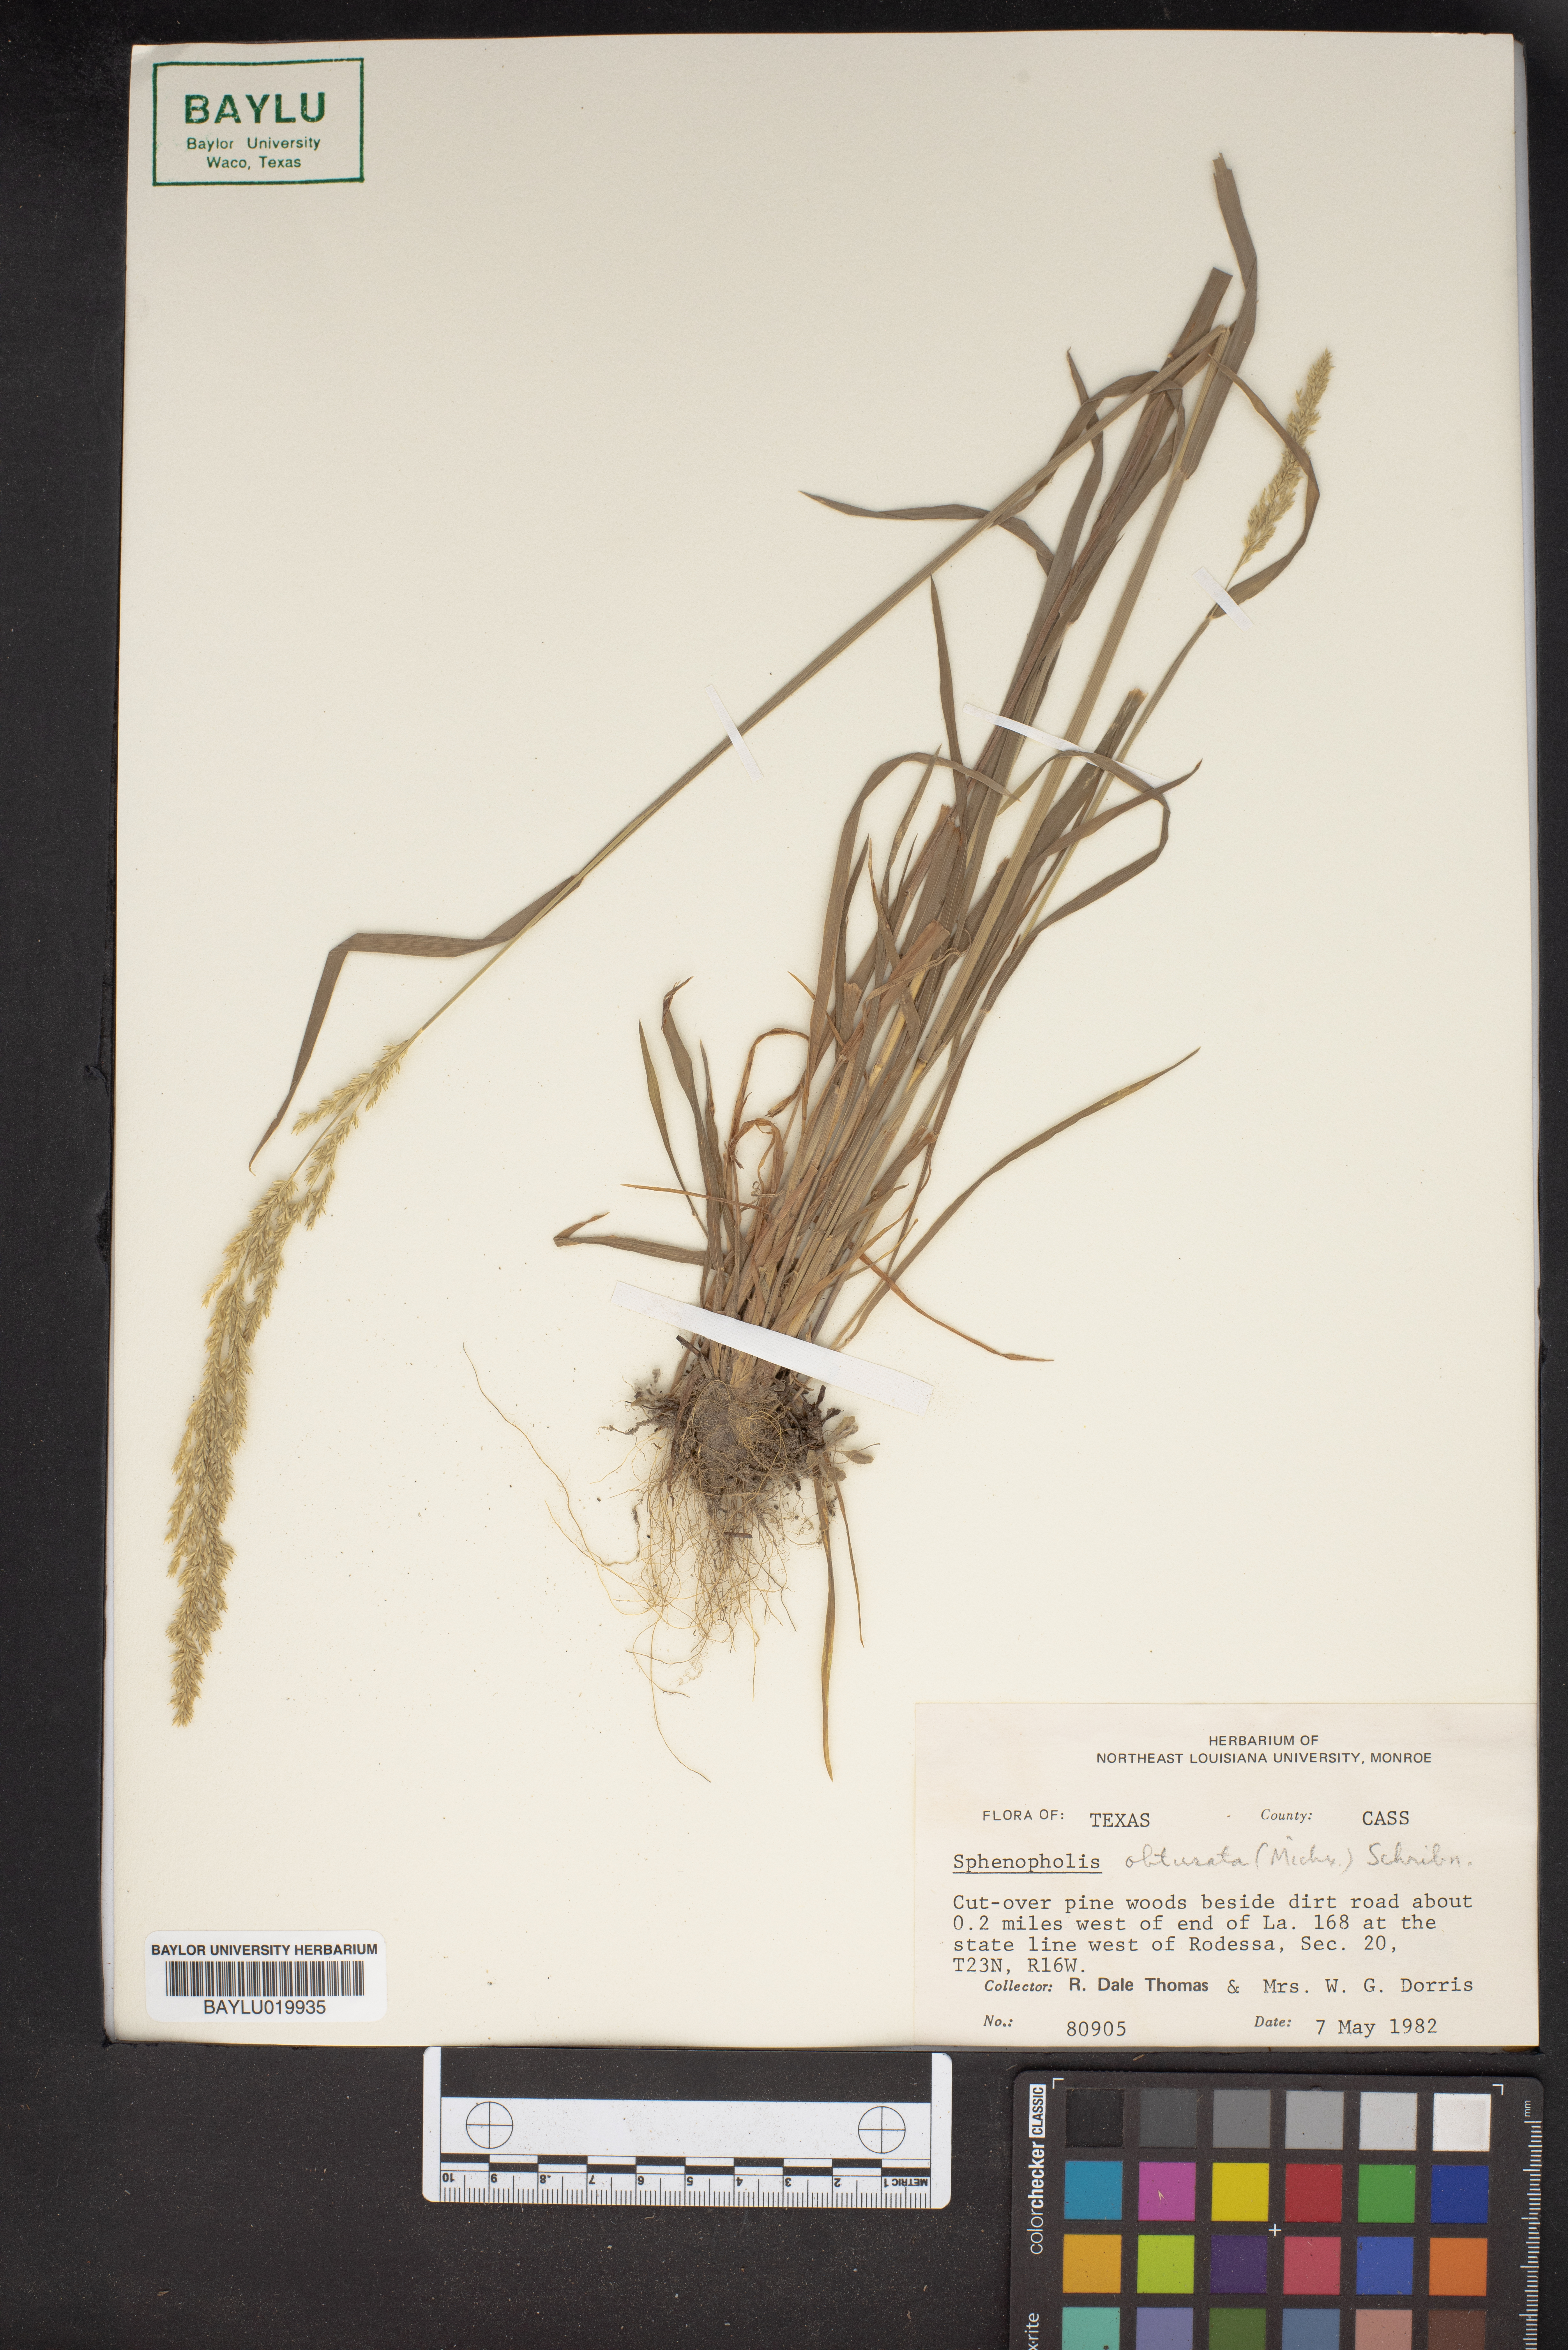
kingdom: Plantae
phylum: Tracheophyta
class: Liliopsida
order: Poales
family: Poaceae
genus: Sphenopholis
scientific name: Sphenopholis obtusata
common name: Prairie grass
